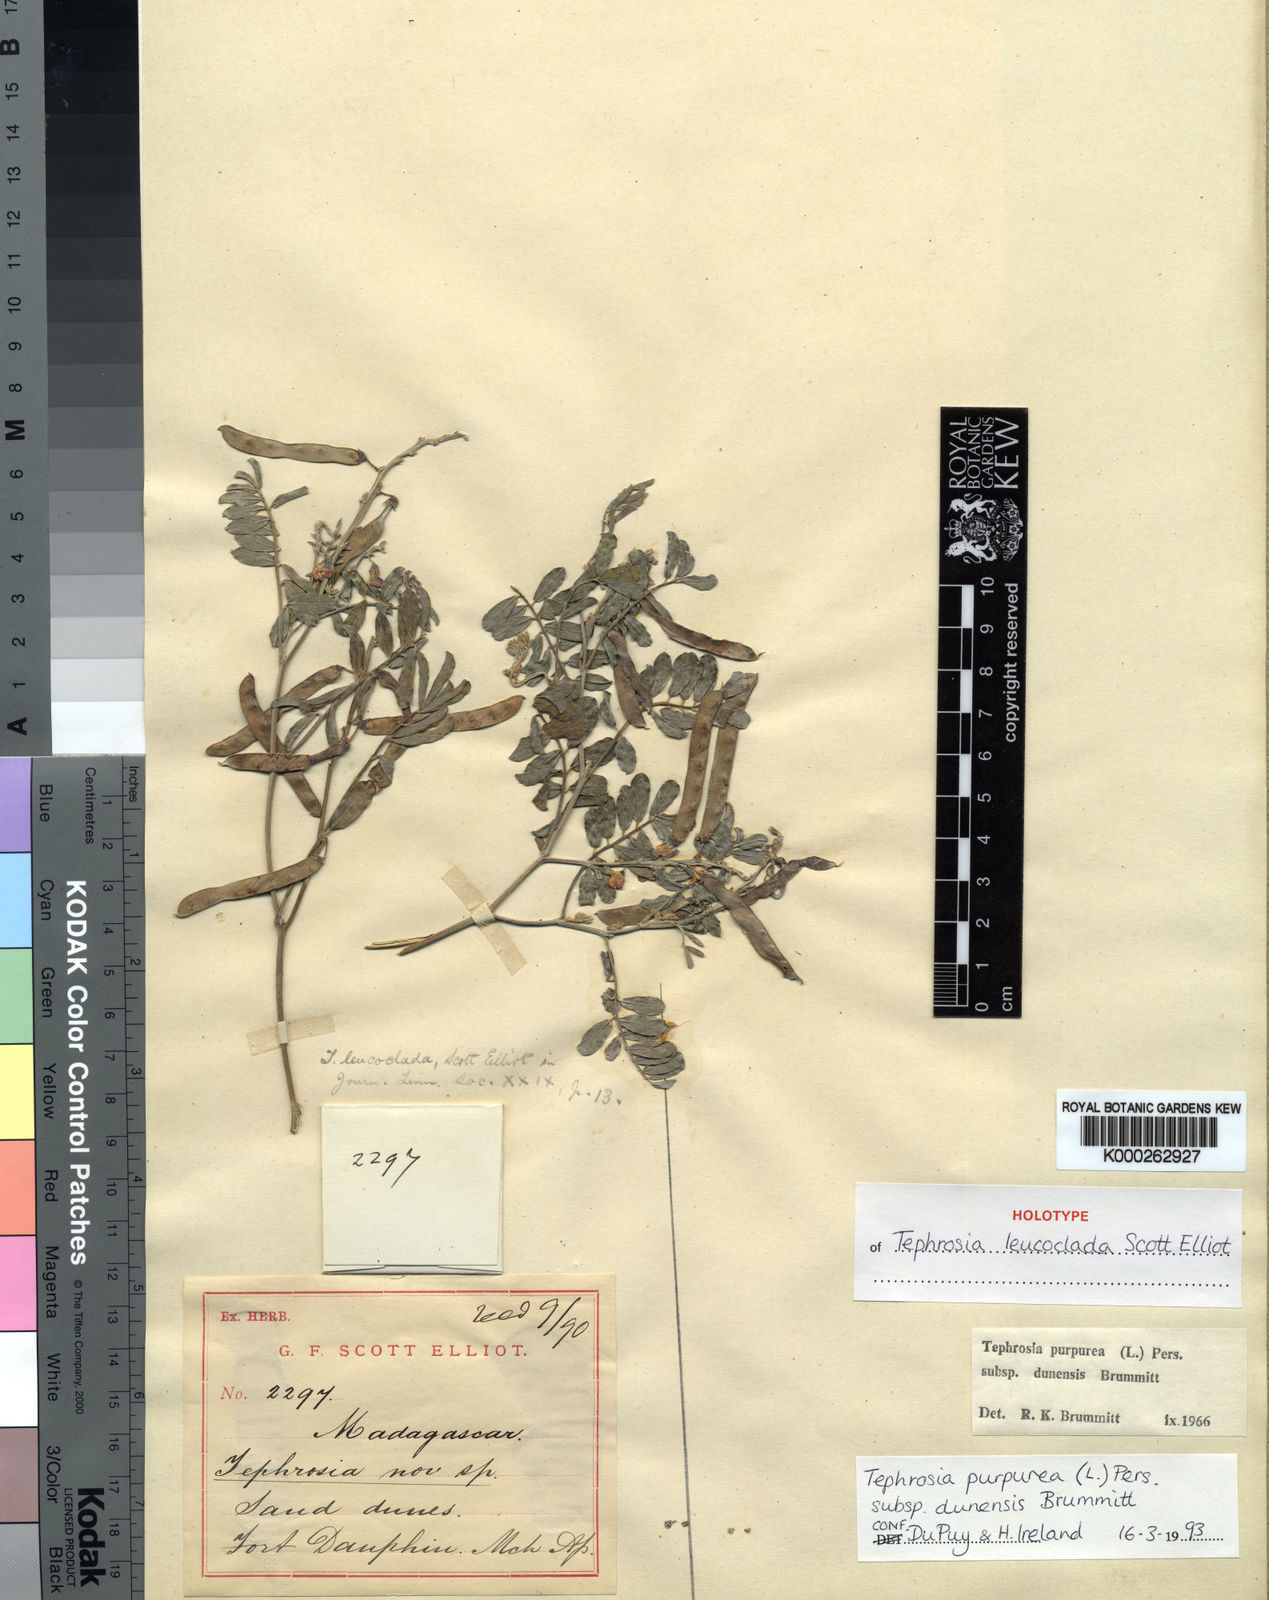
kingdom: Plantae
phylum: Tracheophyta
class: Magnoliopsida
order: Fabales
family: Fabaceae
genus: Tephrosia
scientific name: Tephrosia purpurea
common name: Fishpoison
